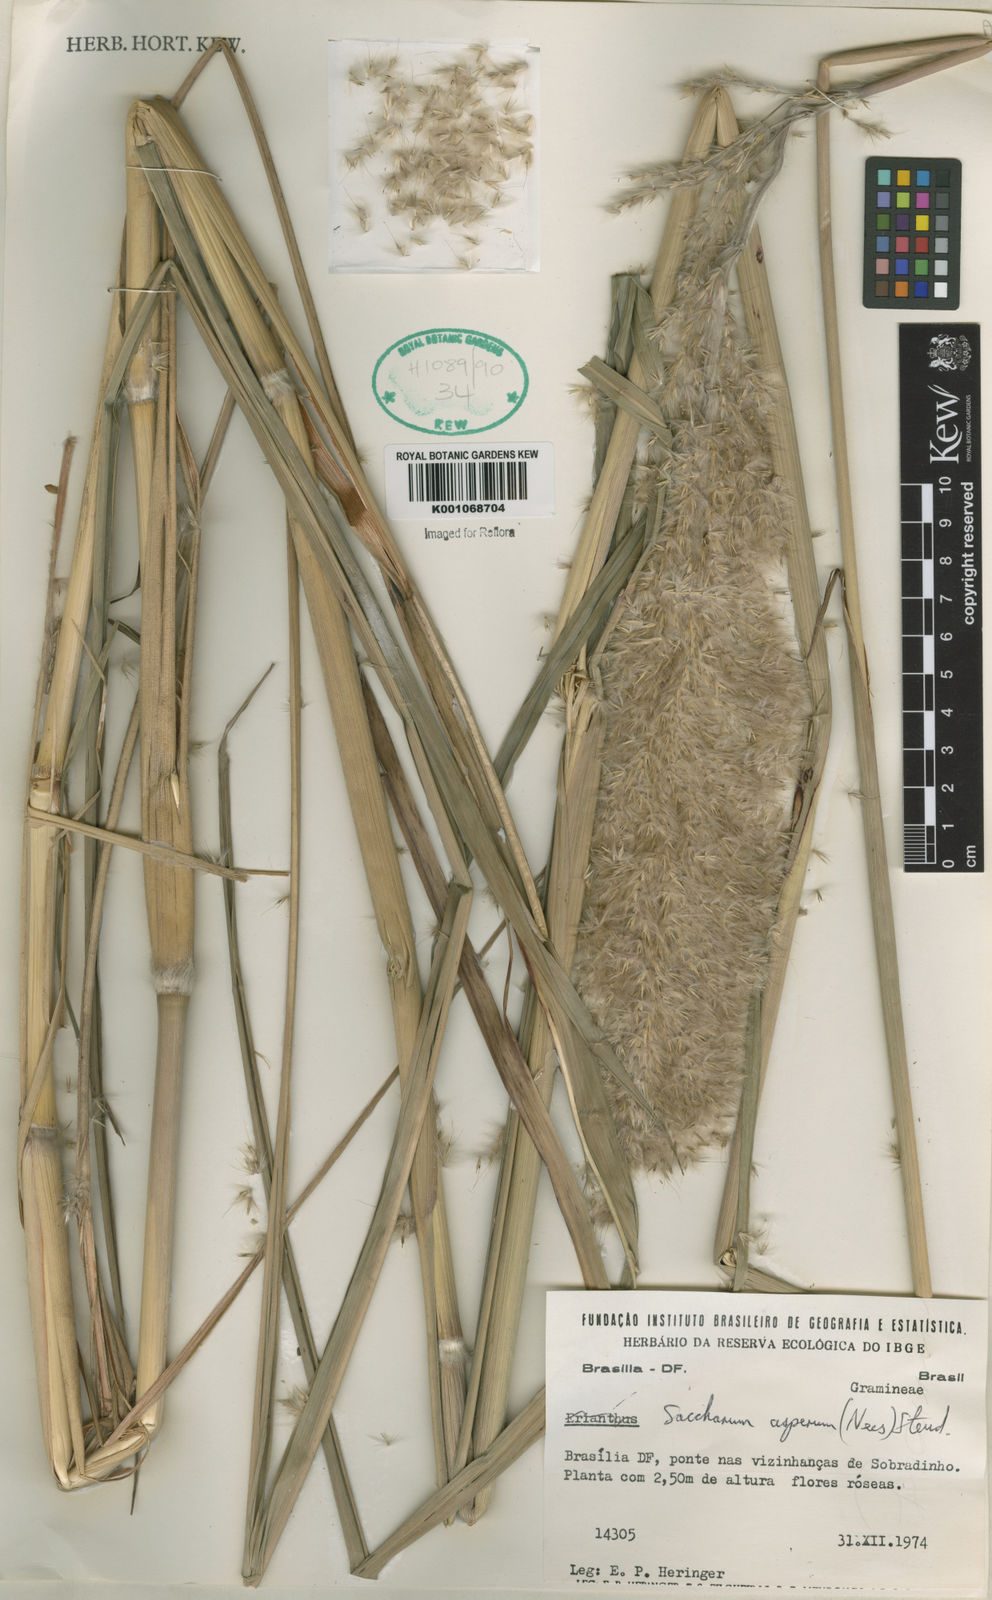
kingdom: Plantae
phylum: Tracheophyta
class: Liliopsida
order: Poales
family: Poaceae
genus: Erianthus
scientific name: Erianthus asper
